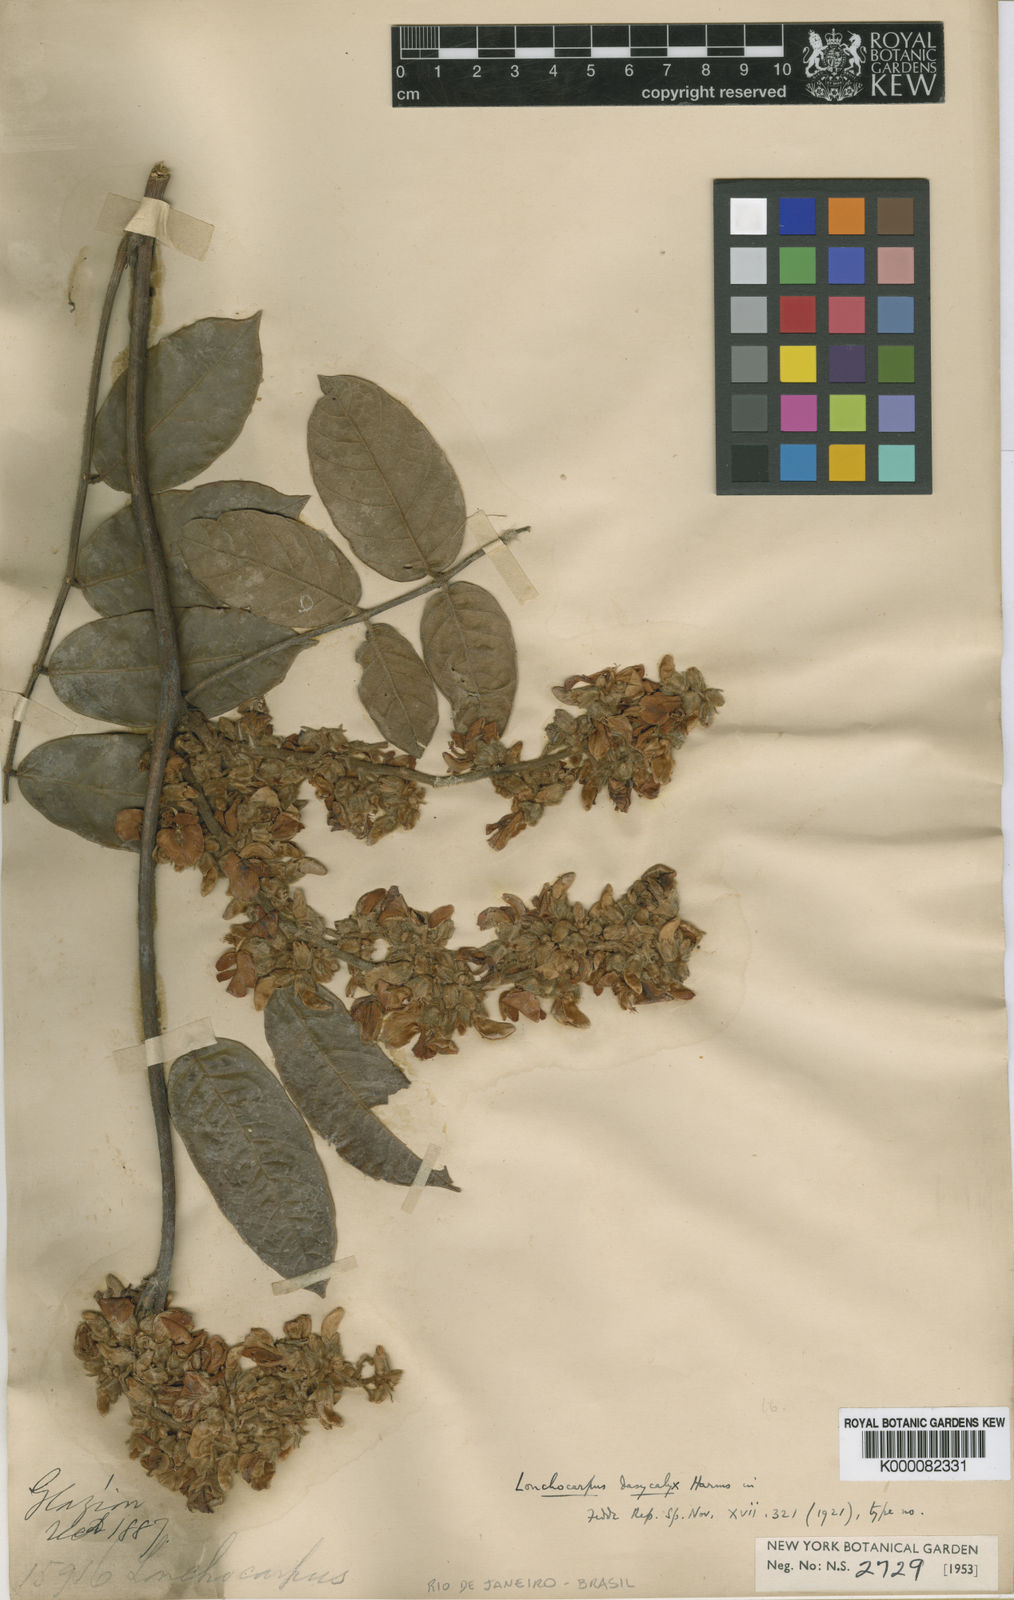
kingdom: Plantae
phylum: Tracheophyta
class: Magnoliopsida
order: Fabales
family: Fabaceae
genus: Deguelia
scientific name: Deguelia dasycalyx
